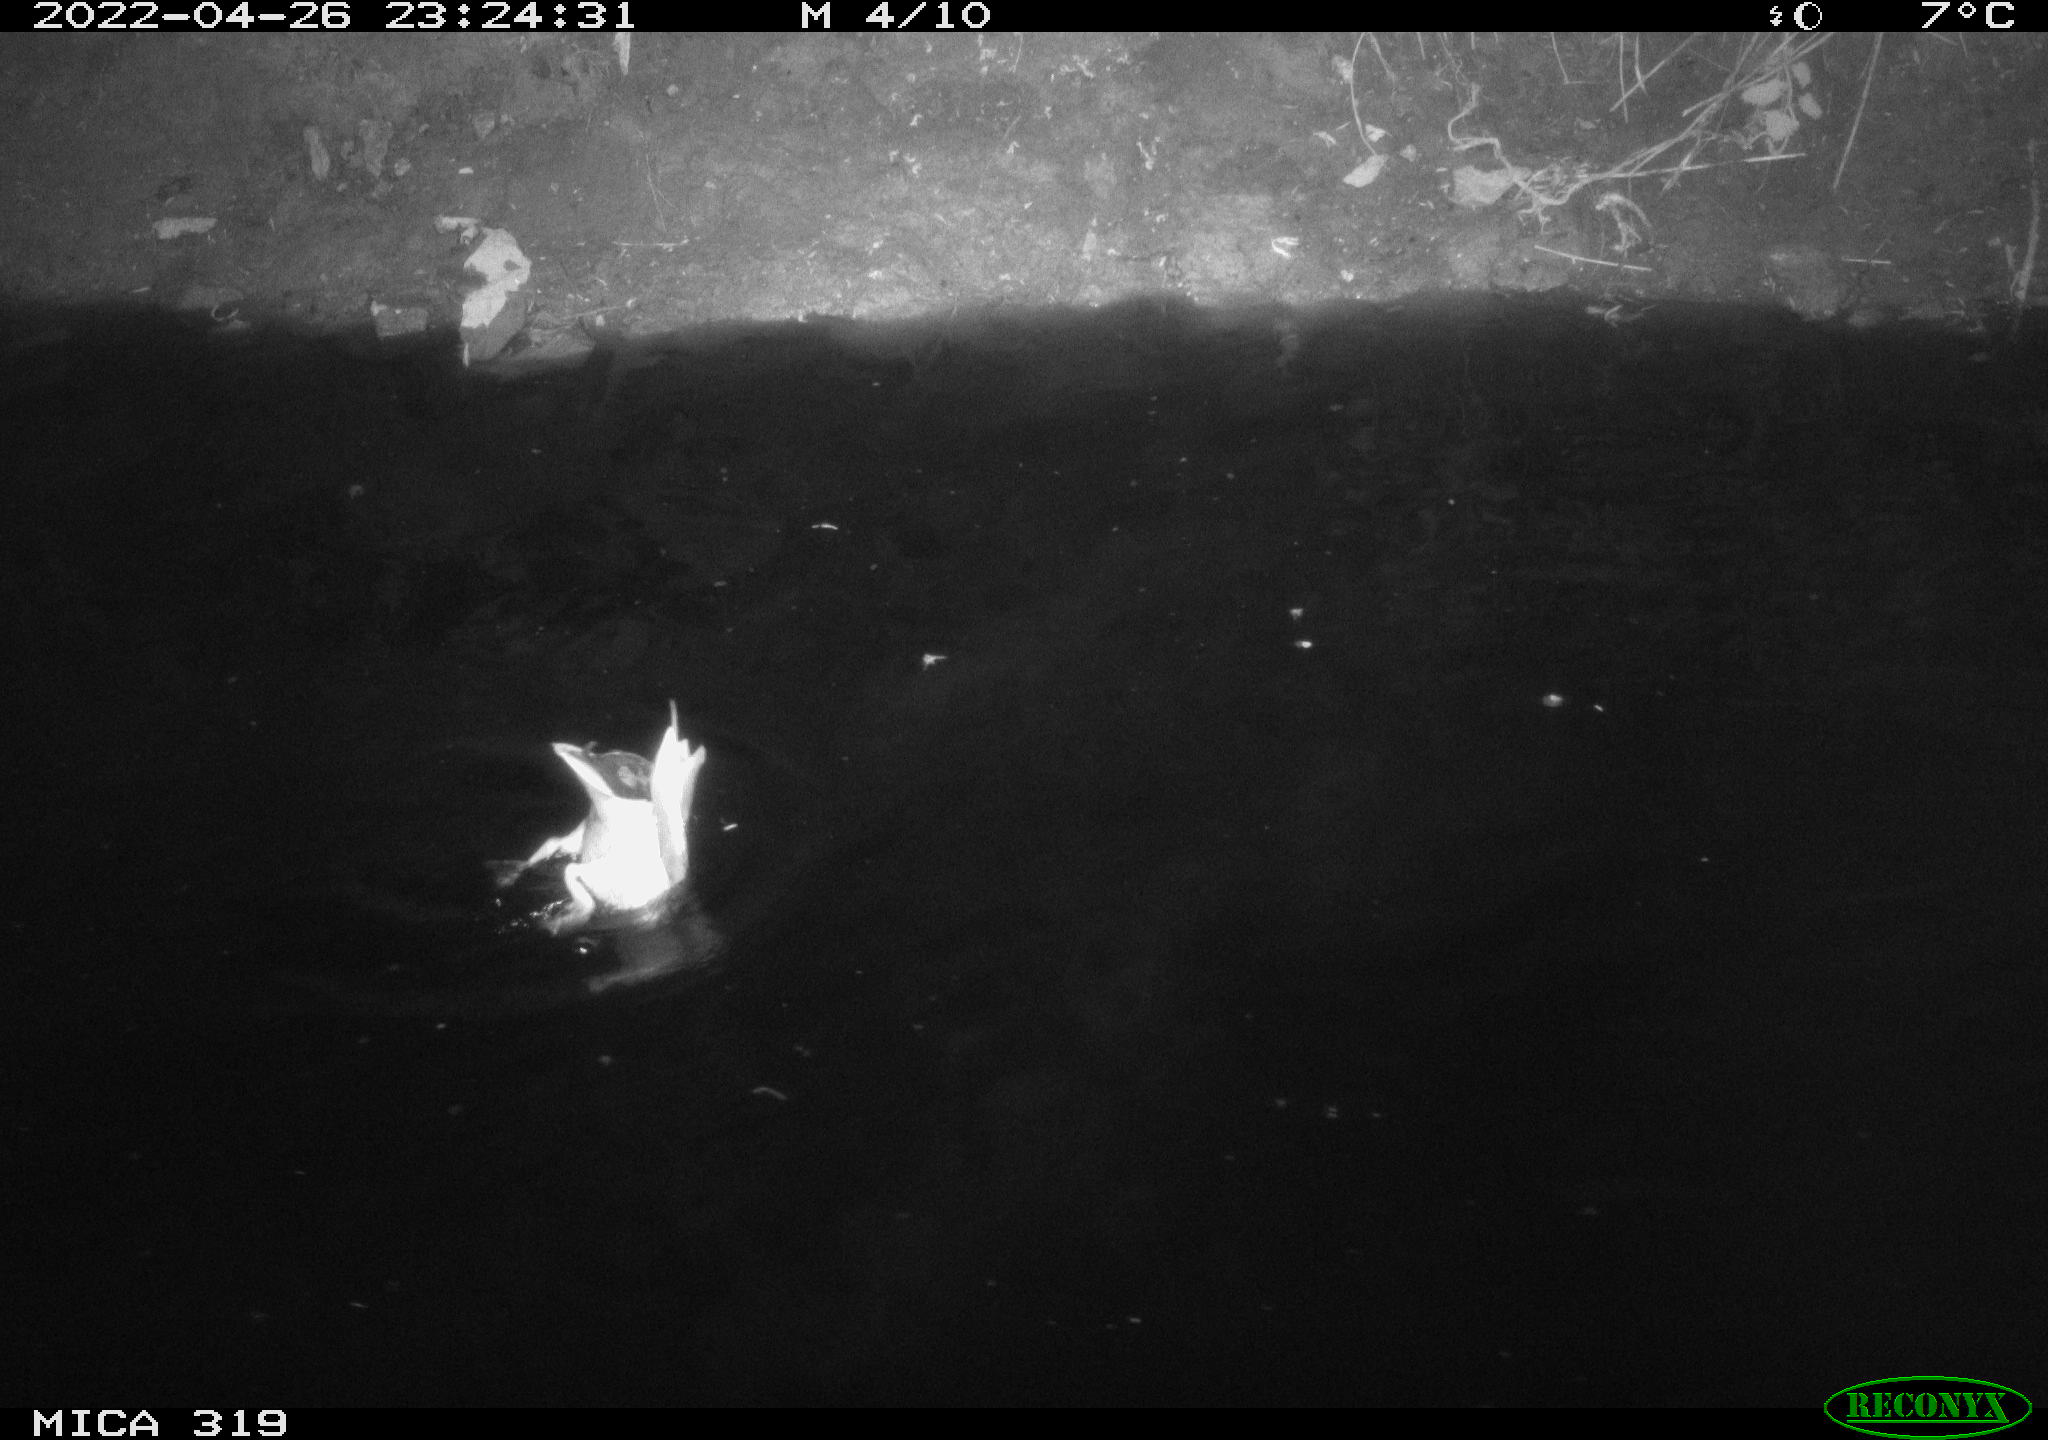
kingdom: Animalia
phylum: Chordata
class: Aves
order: Anseriformes
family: Anatidae
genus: Anas
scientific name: Anas platyrhynchos
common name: Mallard
